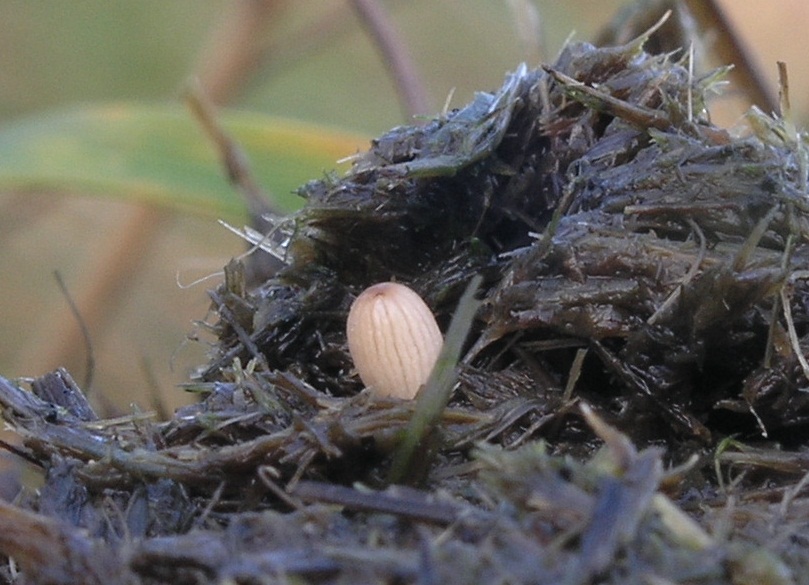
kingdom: Fungi
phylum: Basidiomycota
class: Agaricomycetes
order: Agaricales
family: Psathyrellaceae
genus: Parasola
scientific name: Parasola misera
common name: lillebitte hjulhat
